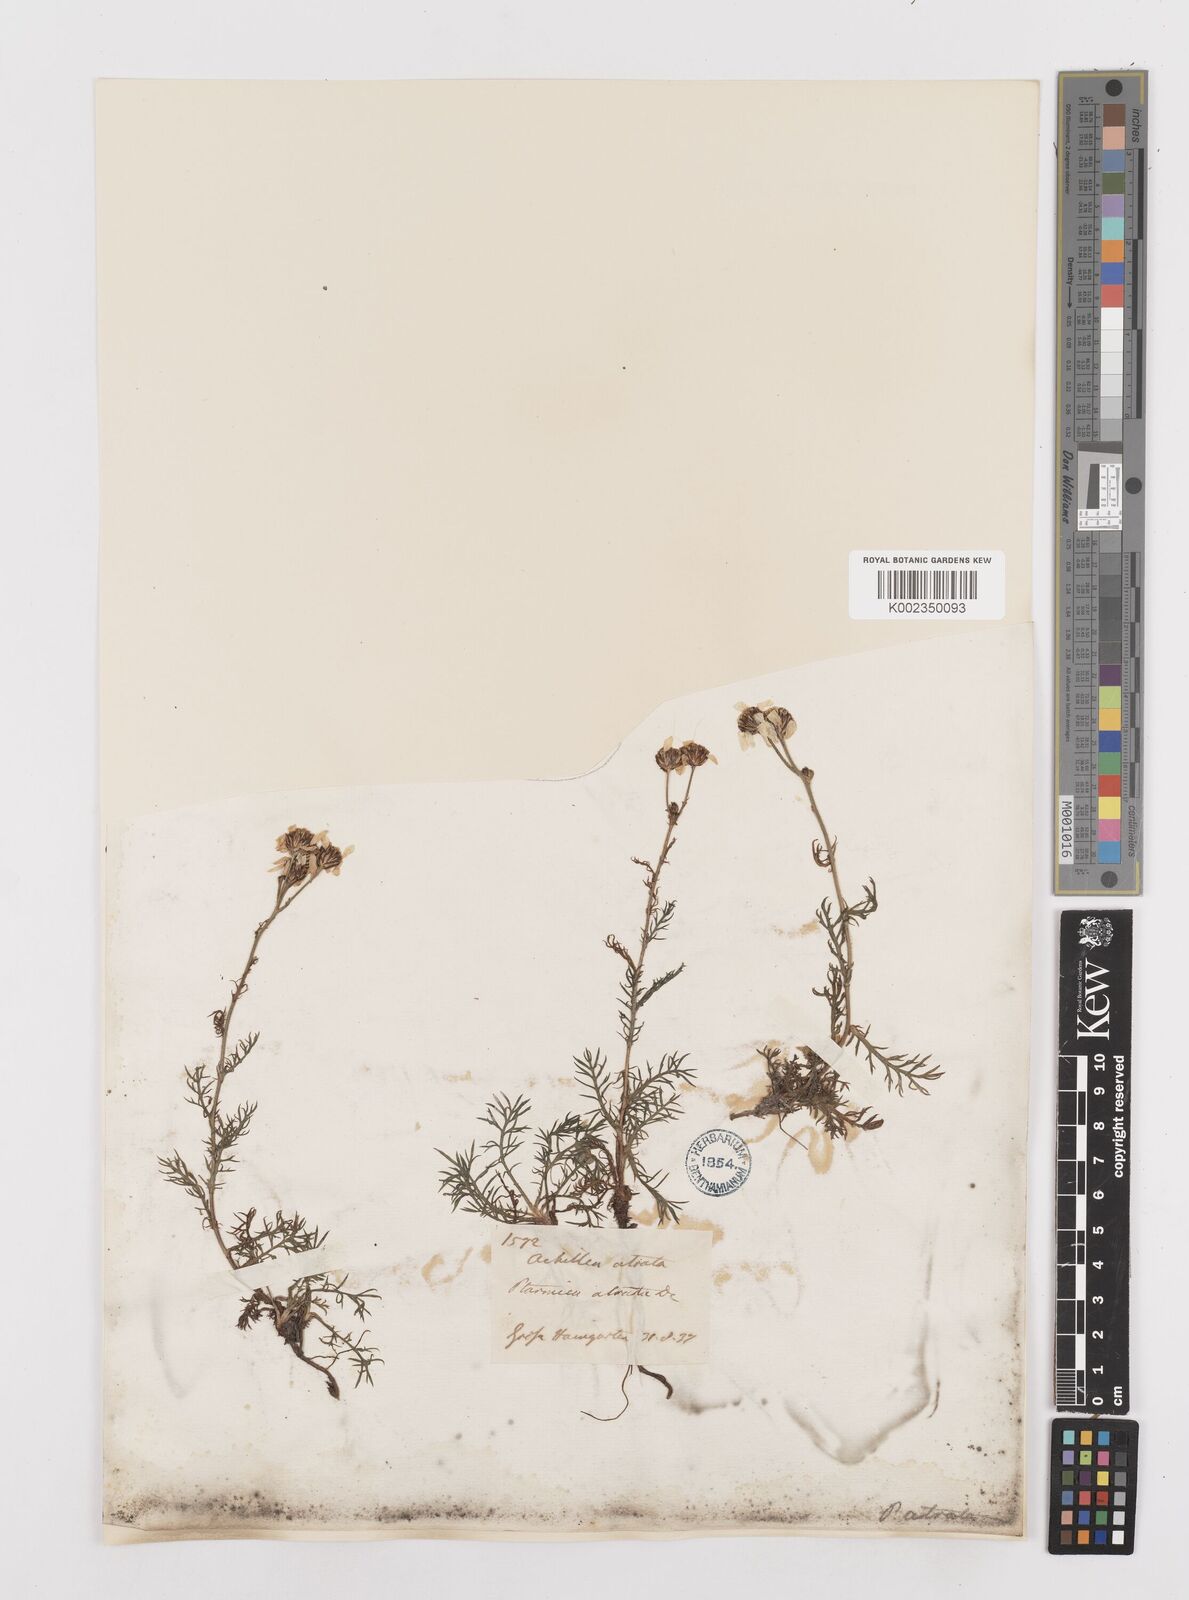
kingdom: Plantae
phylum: Tracheophyta
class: Magnoliopsida
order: Asterales
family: Asteraceae
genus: Achillea
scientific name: Achillea atrata
